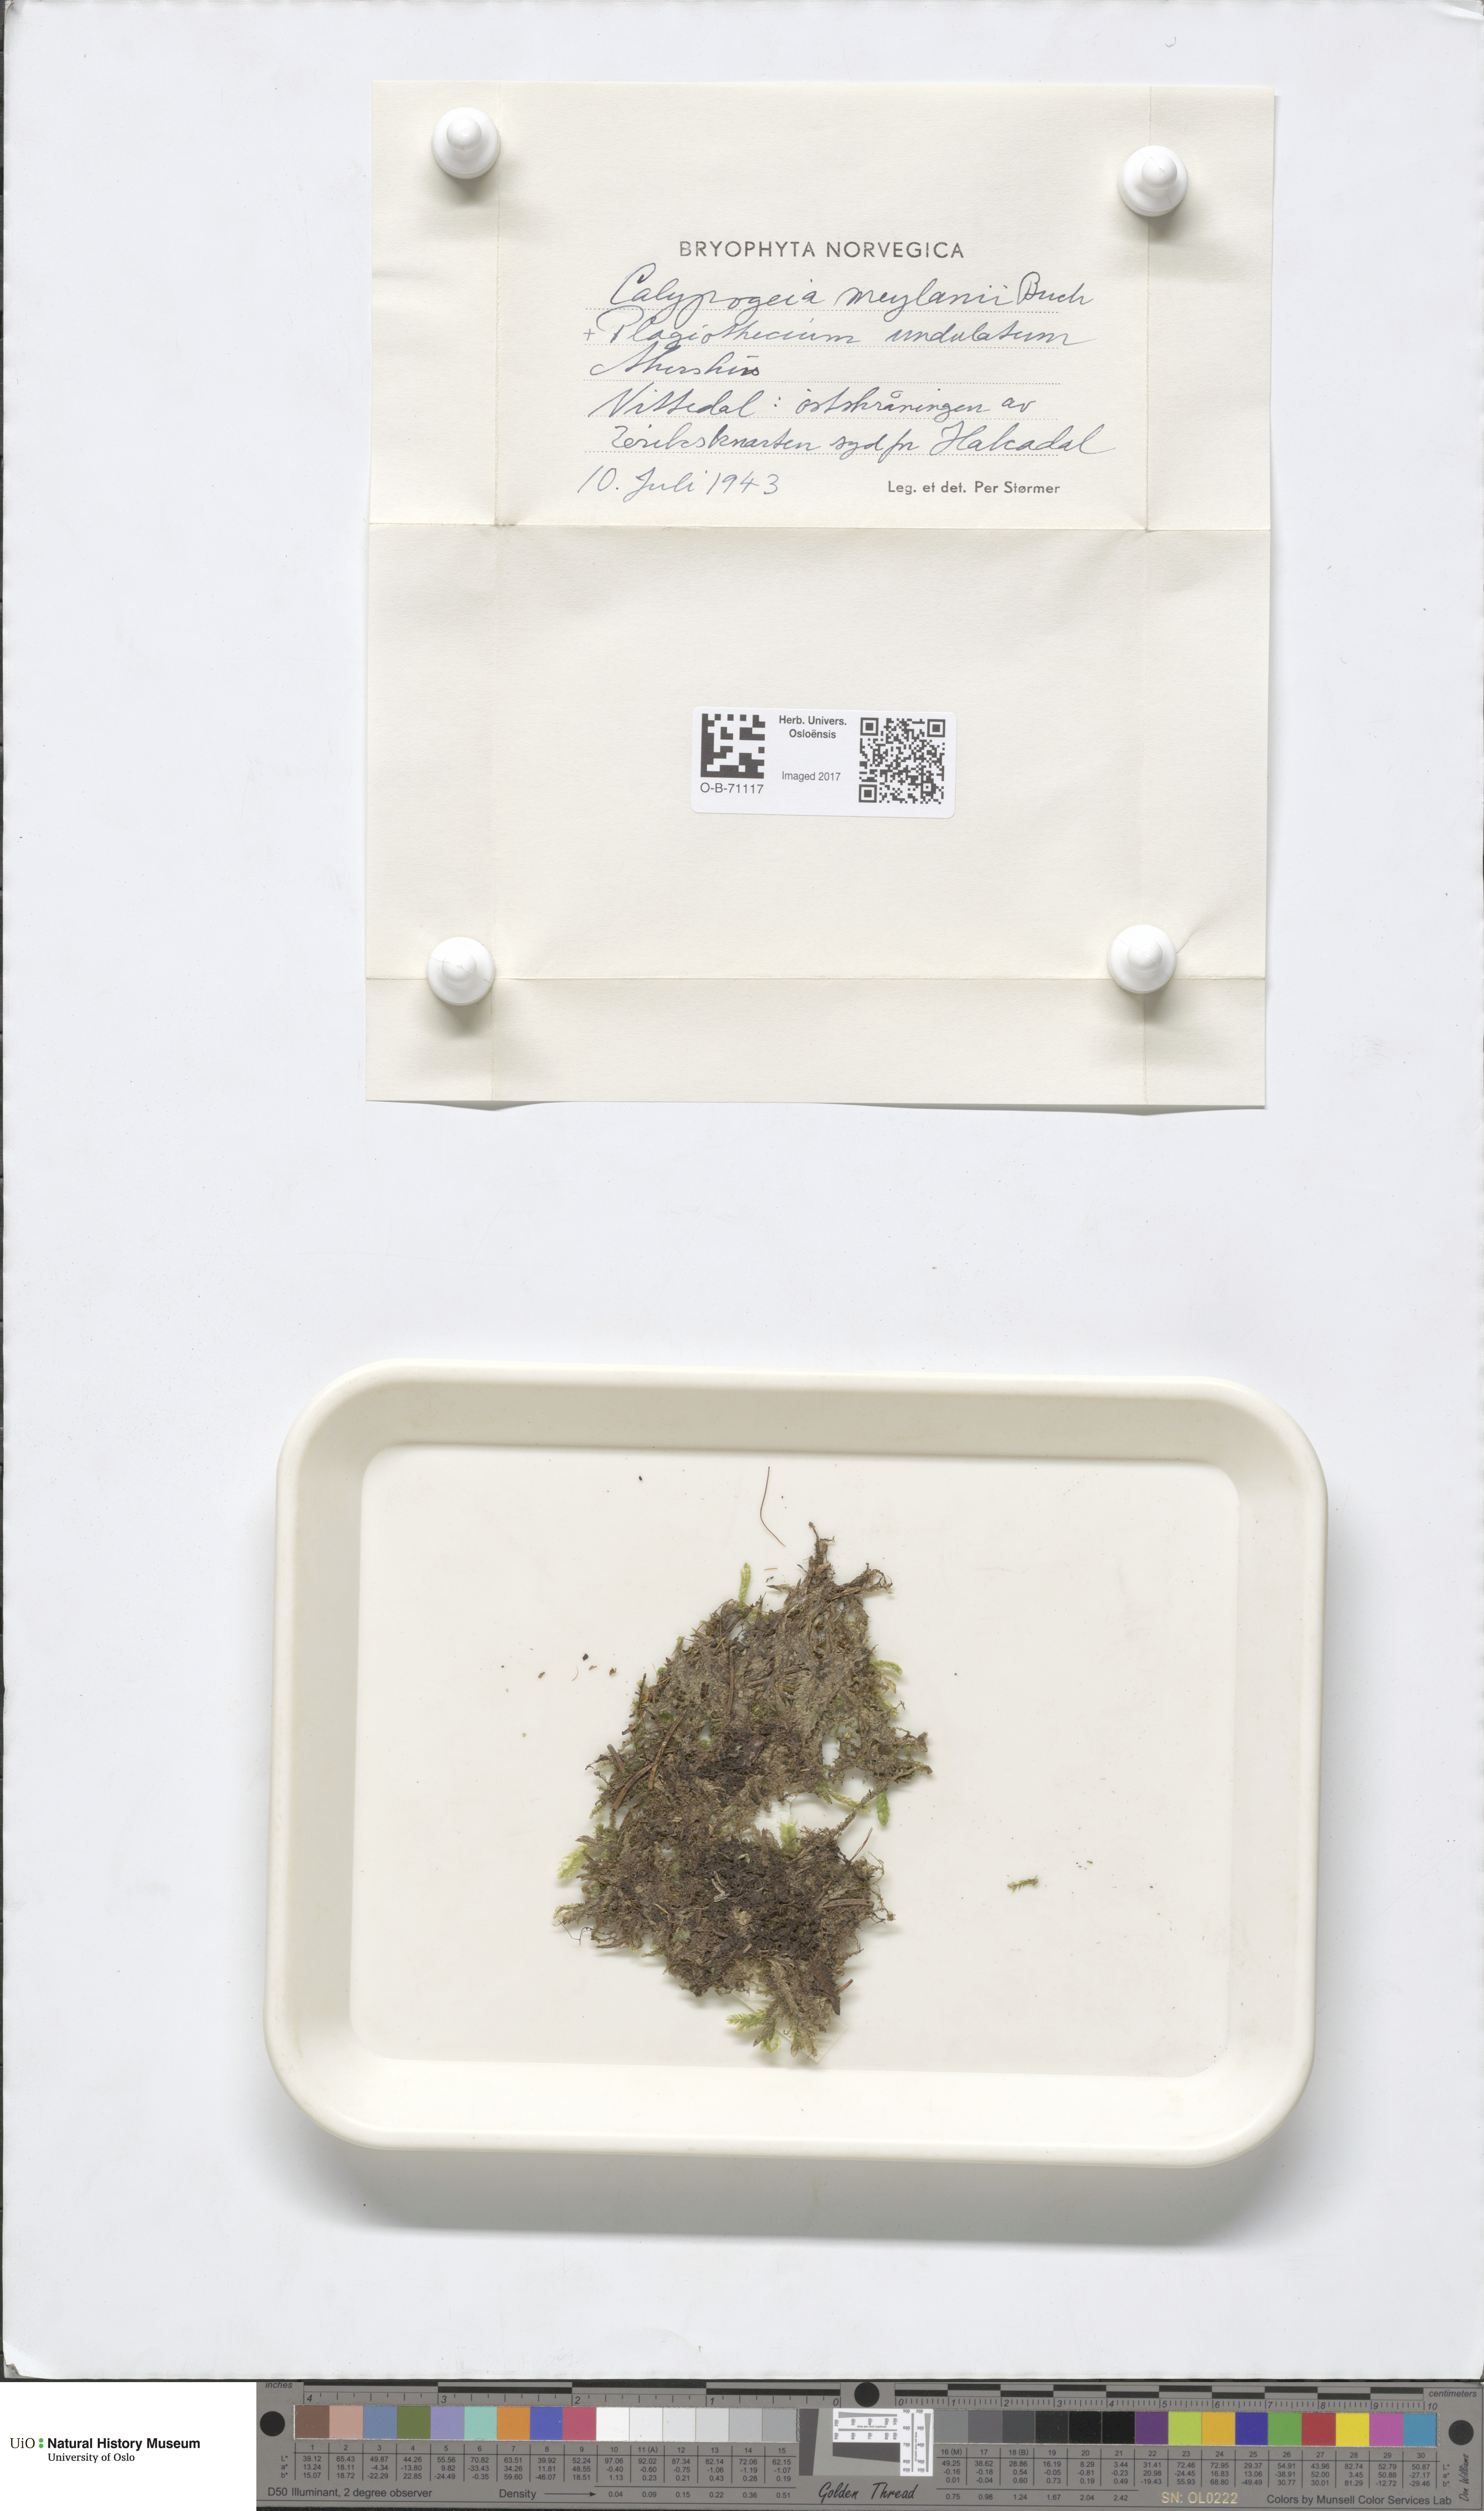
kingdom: Plantae
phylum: Marchantiophyta
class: Jungermanniopsida
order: Jungermanniales
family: Calypogeiaceae
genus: Calypogeia
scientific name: Calypogeia integristipula
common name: Meylan s pouchwort
